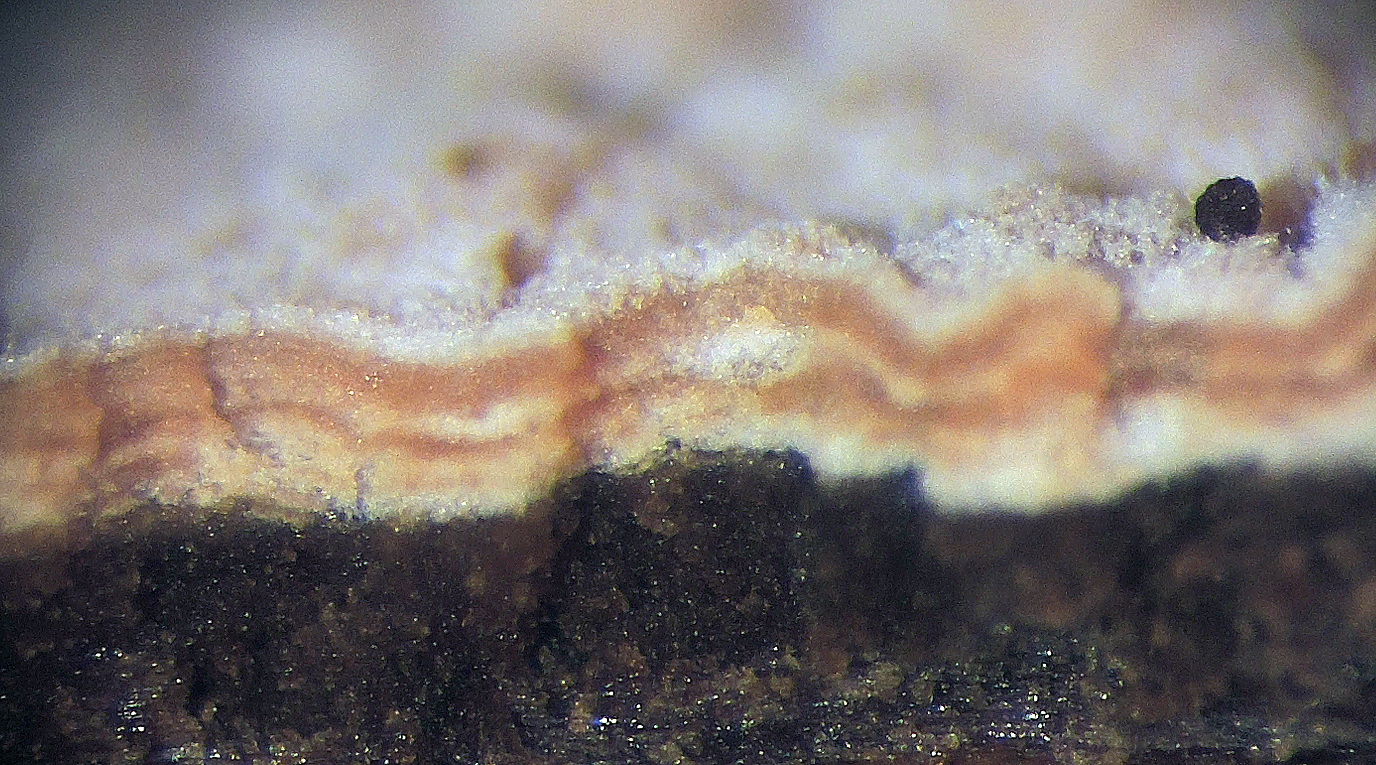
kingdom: Fungi
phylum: Basidiomycota
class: Agaricomycetes
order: Agaricales
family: Cyphellaceae
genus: Granulobasidium
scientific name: Granulobasidium vellereum
